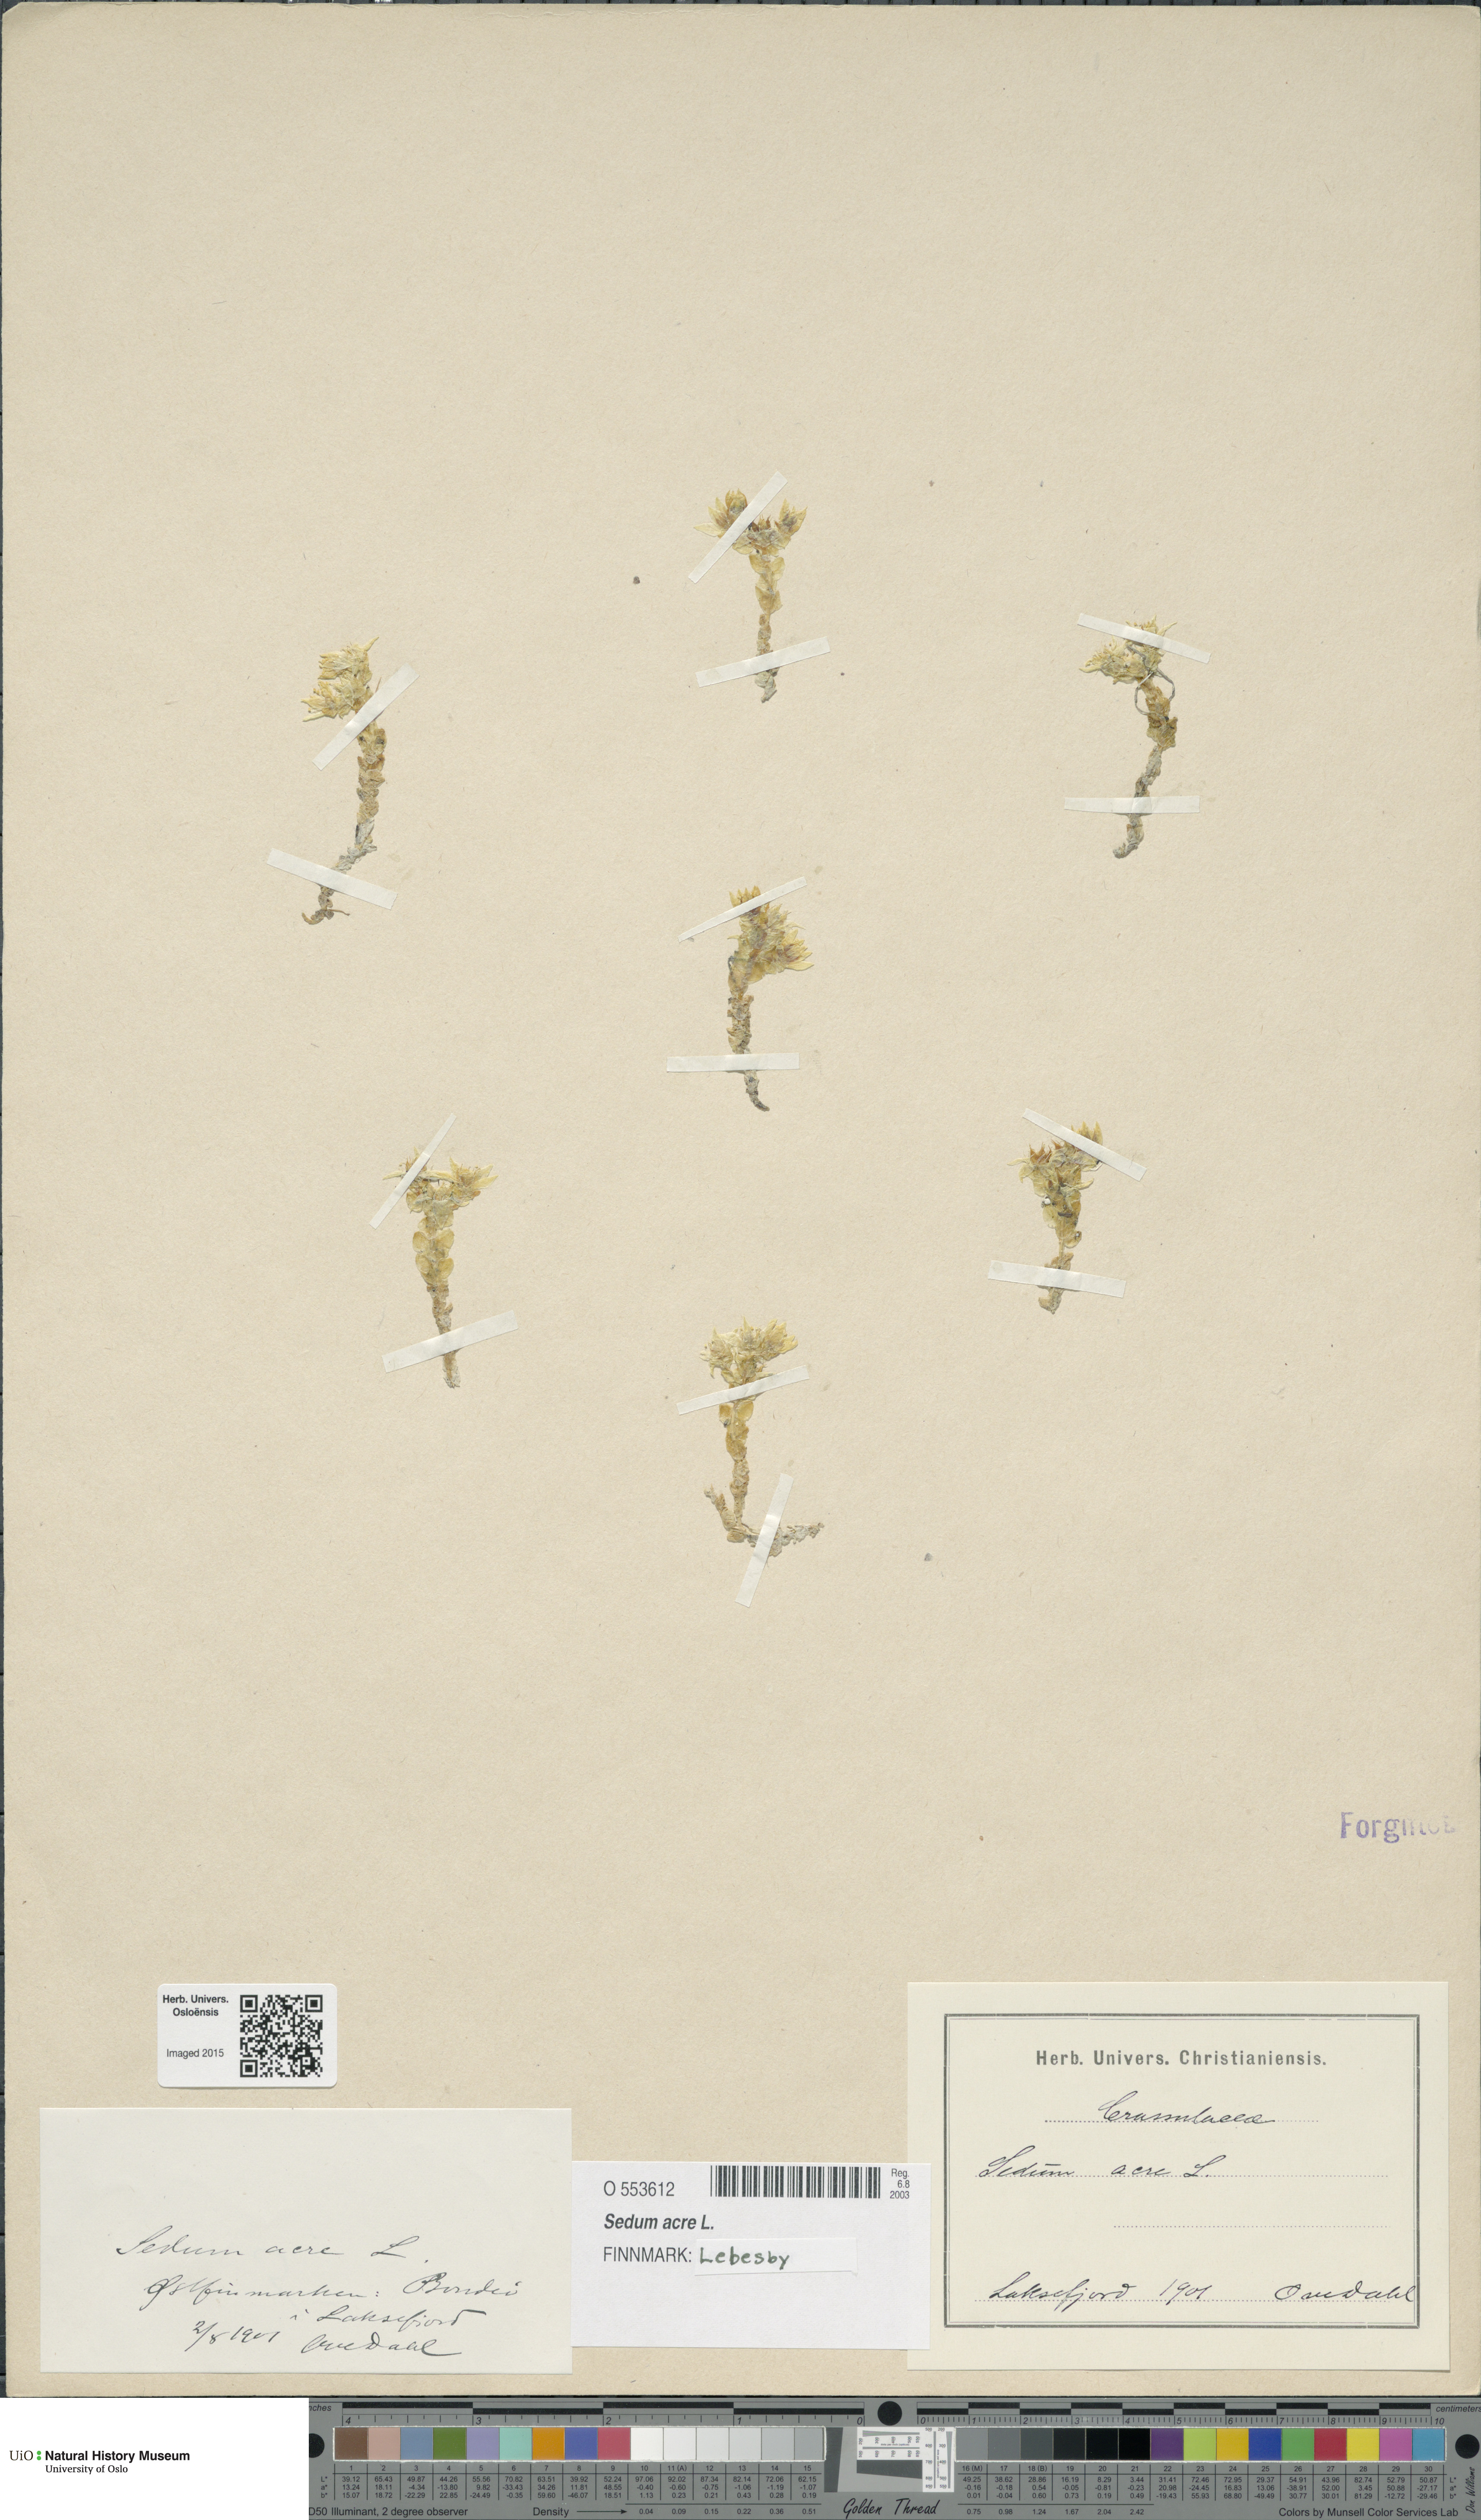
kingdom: Plantae
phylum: Tracheophyta
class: Magnoliopsida
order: Saxifragales
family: Crassulaceae
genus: Sedum
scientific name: Sedum acre
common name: Biting stonecrop
